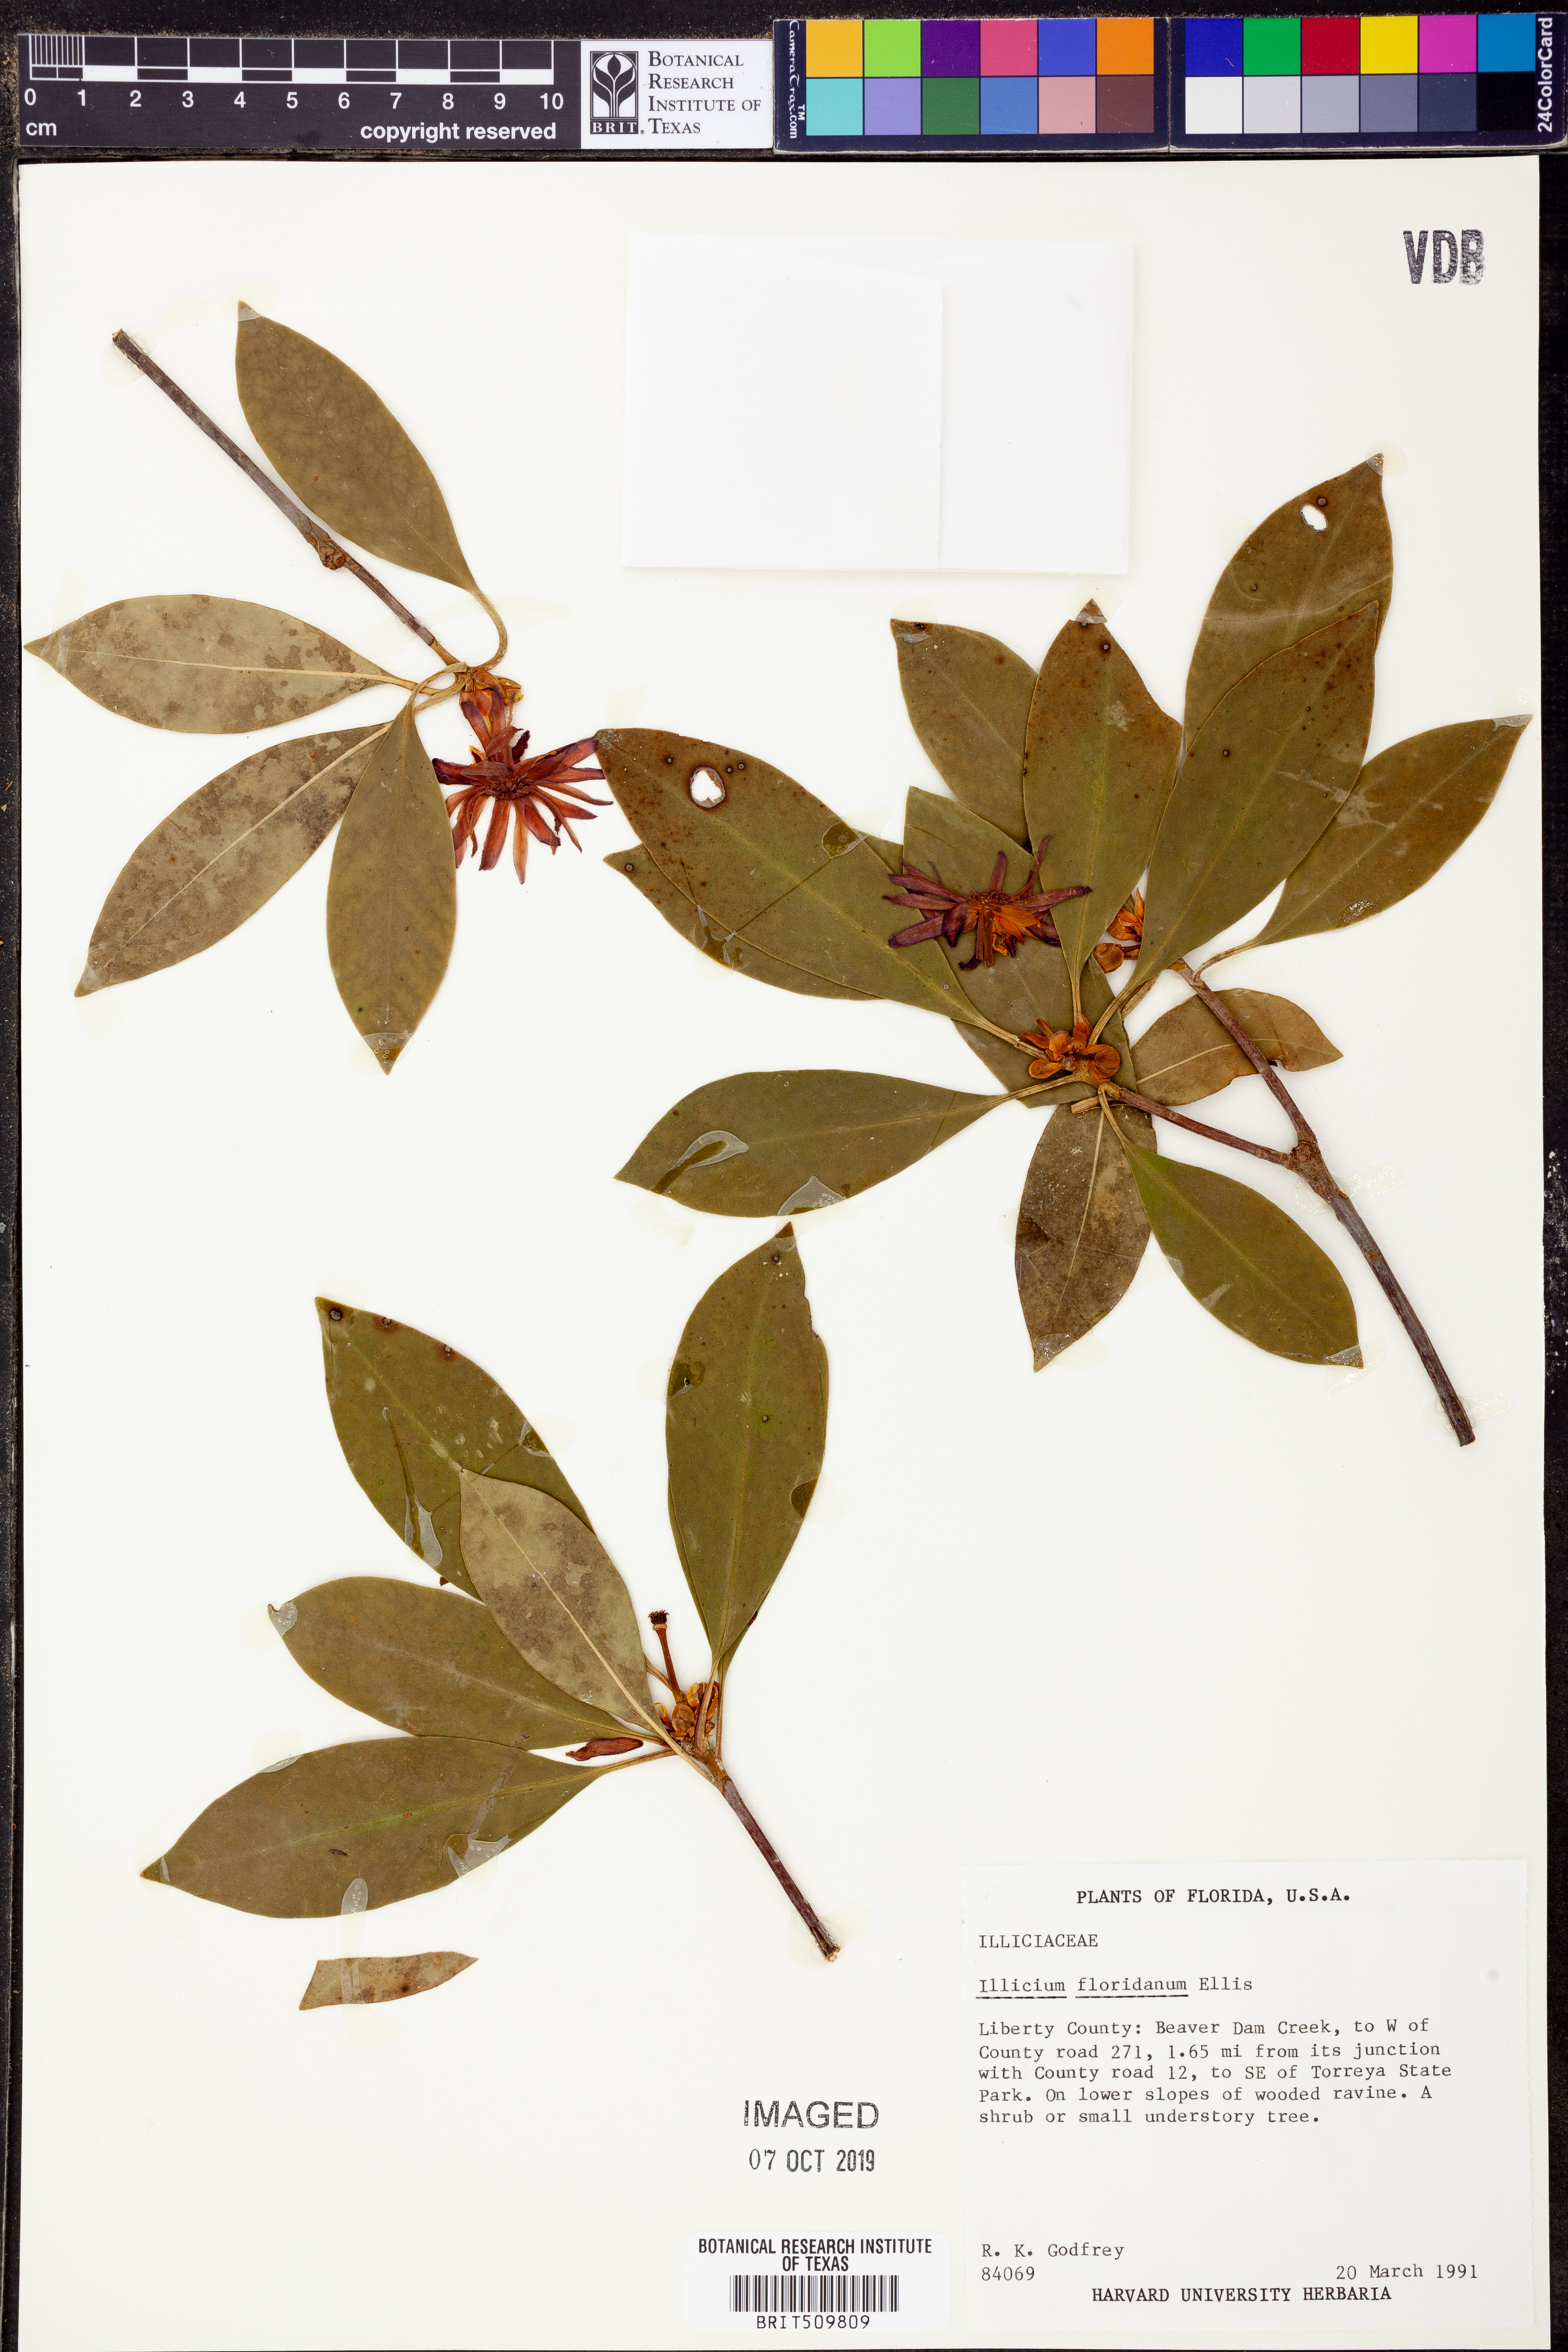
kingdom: Plantae
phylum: Tracheophyta
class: Magnoliopsida
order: Austrobaileyales
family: Schisandraceae
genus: Illicium
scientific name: Illicium floridanum
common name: Florida anisetree
